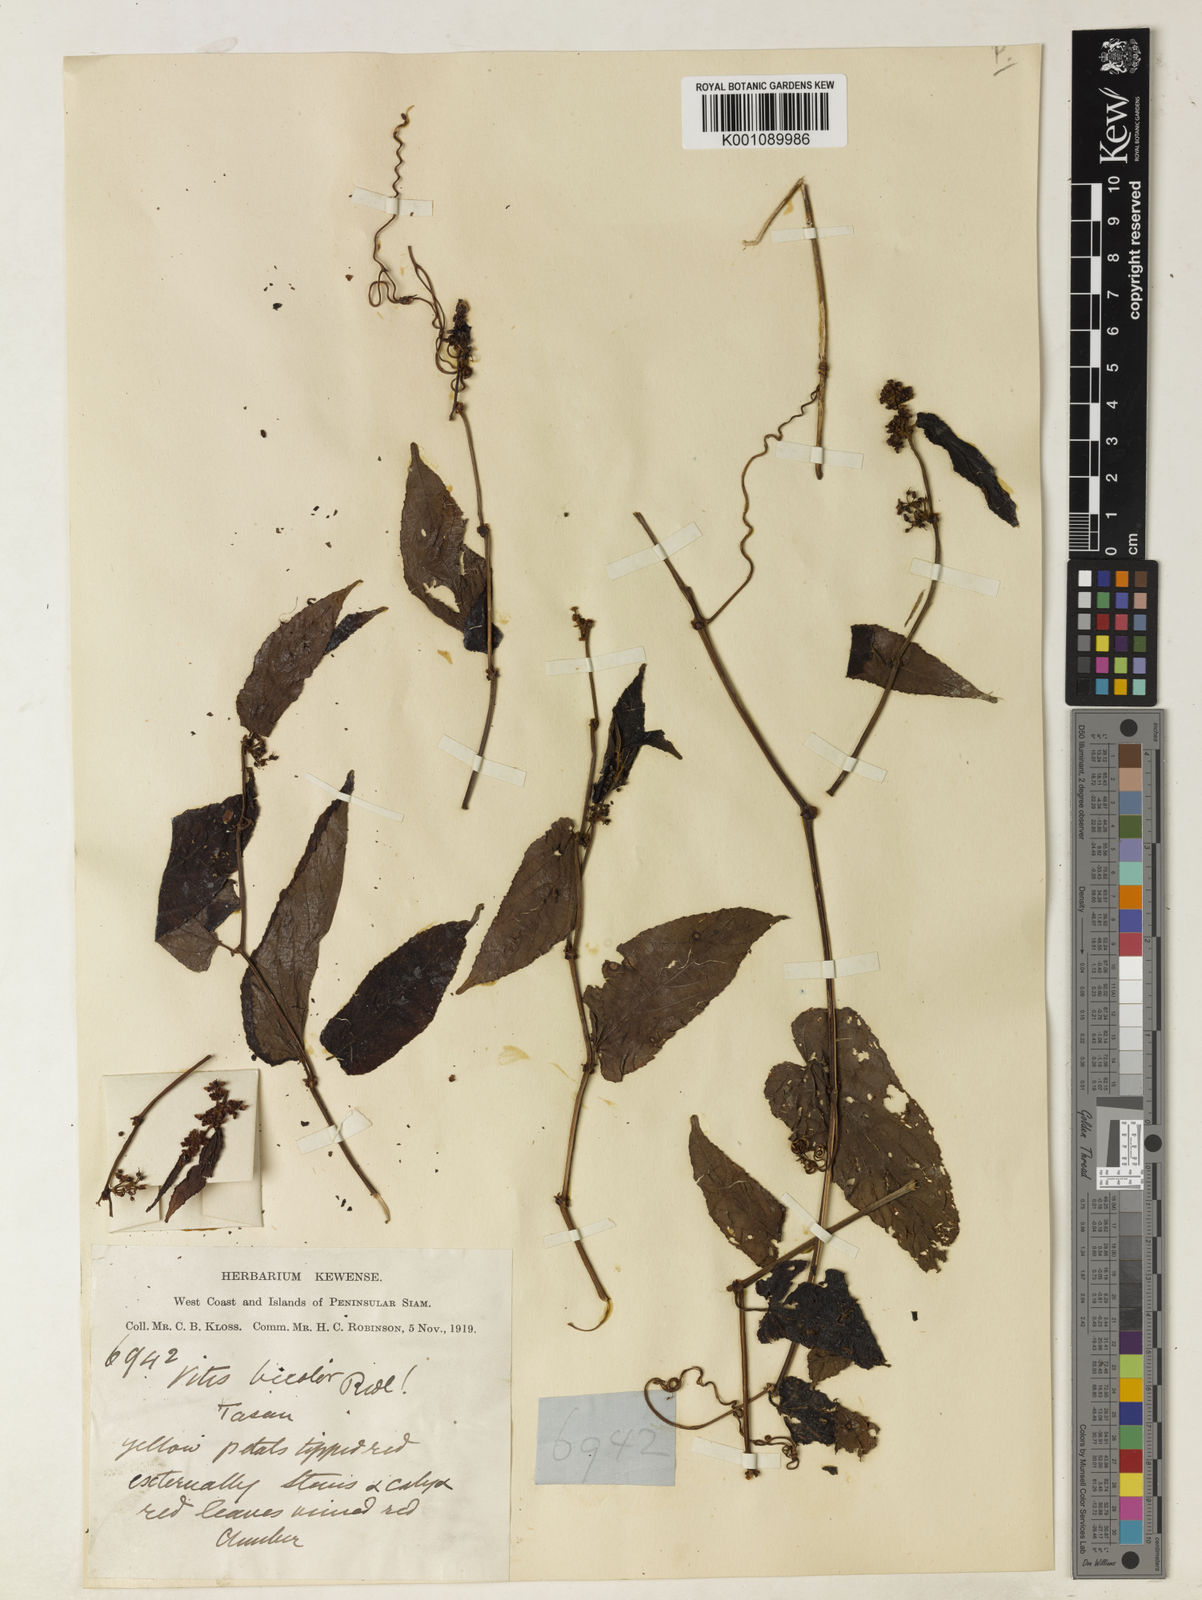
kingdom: Plantae
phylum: Tracheophyta
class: Magnoliopsida
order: Vitales
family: Vitaceae
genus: Vitis
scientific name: Vitis
